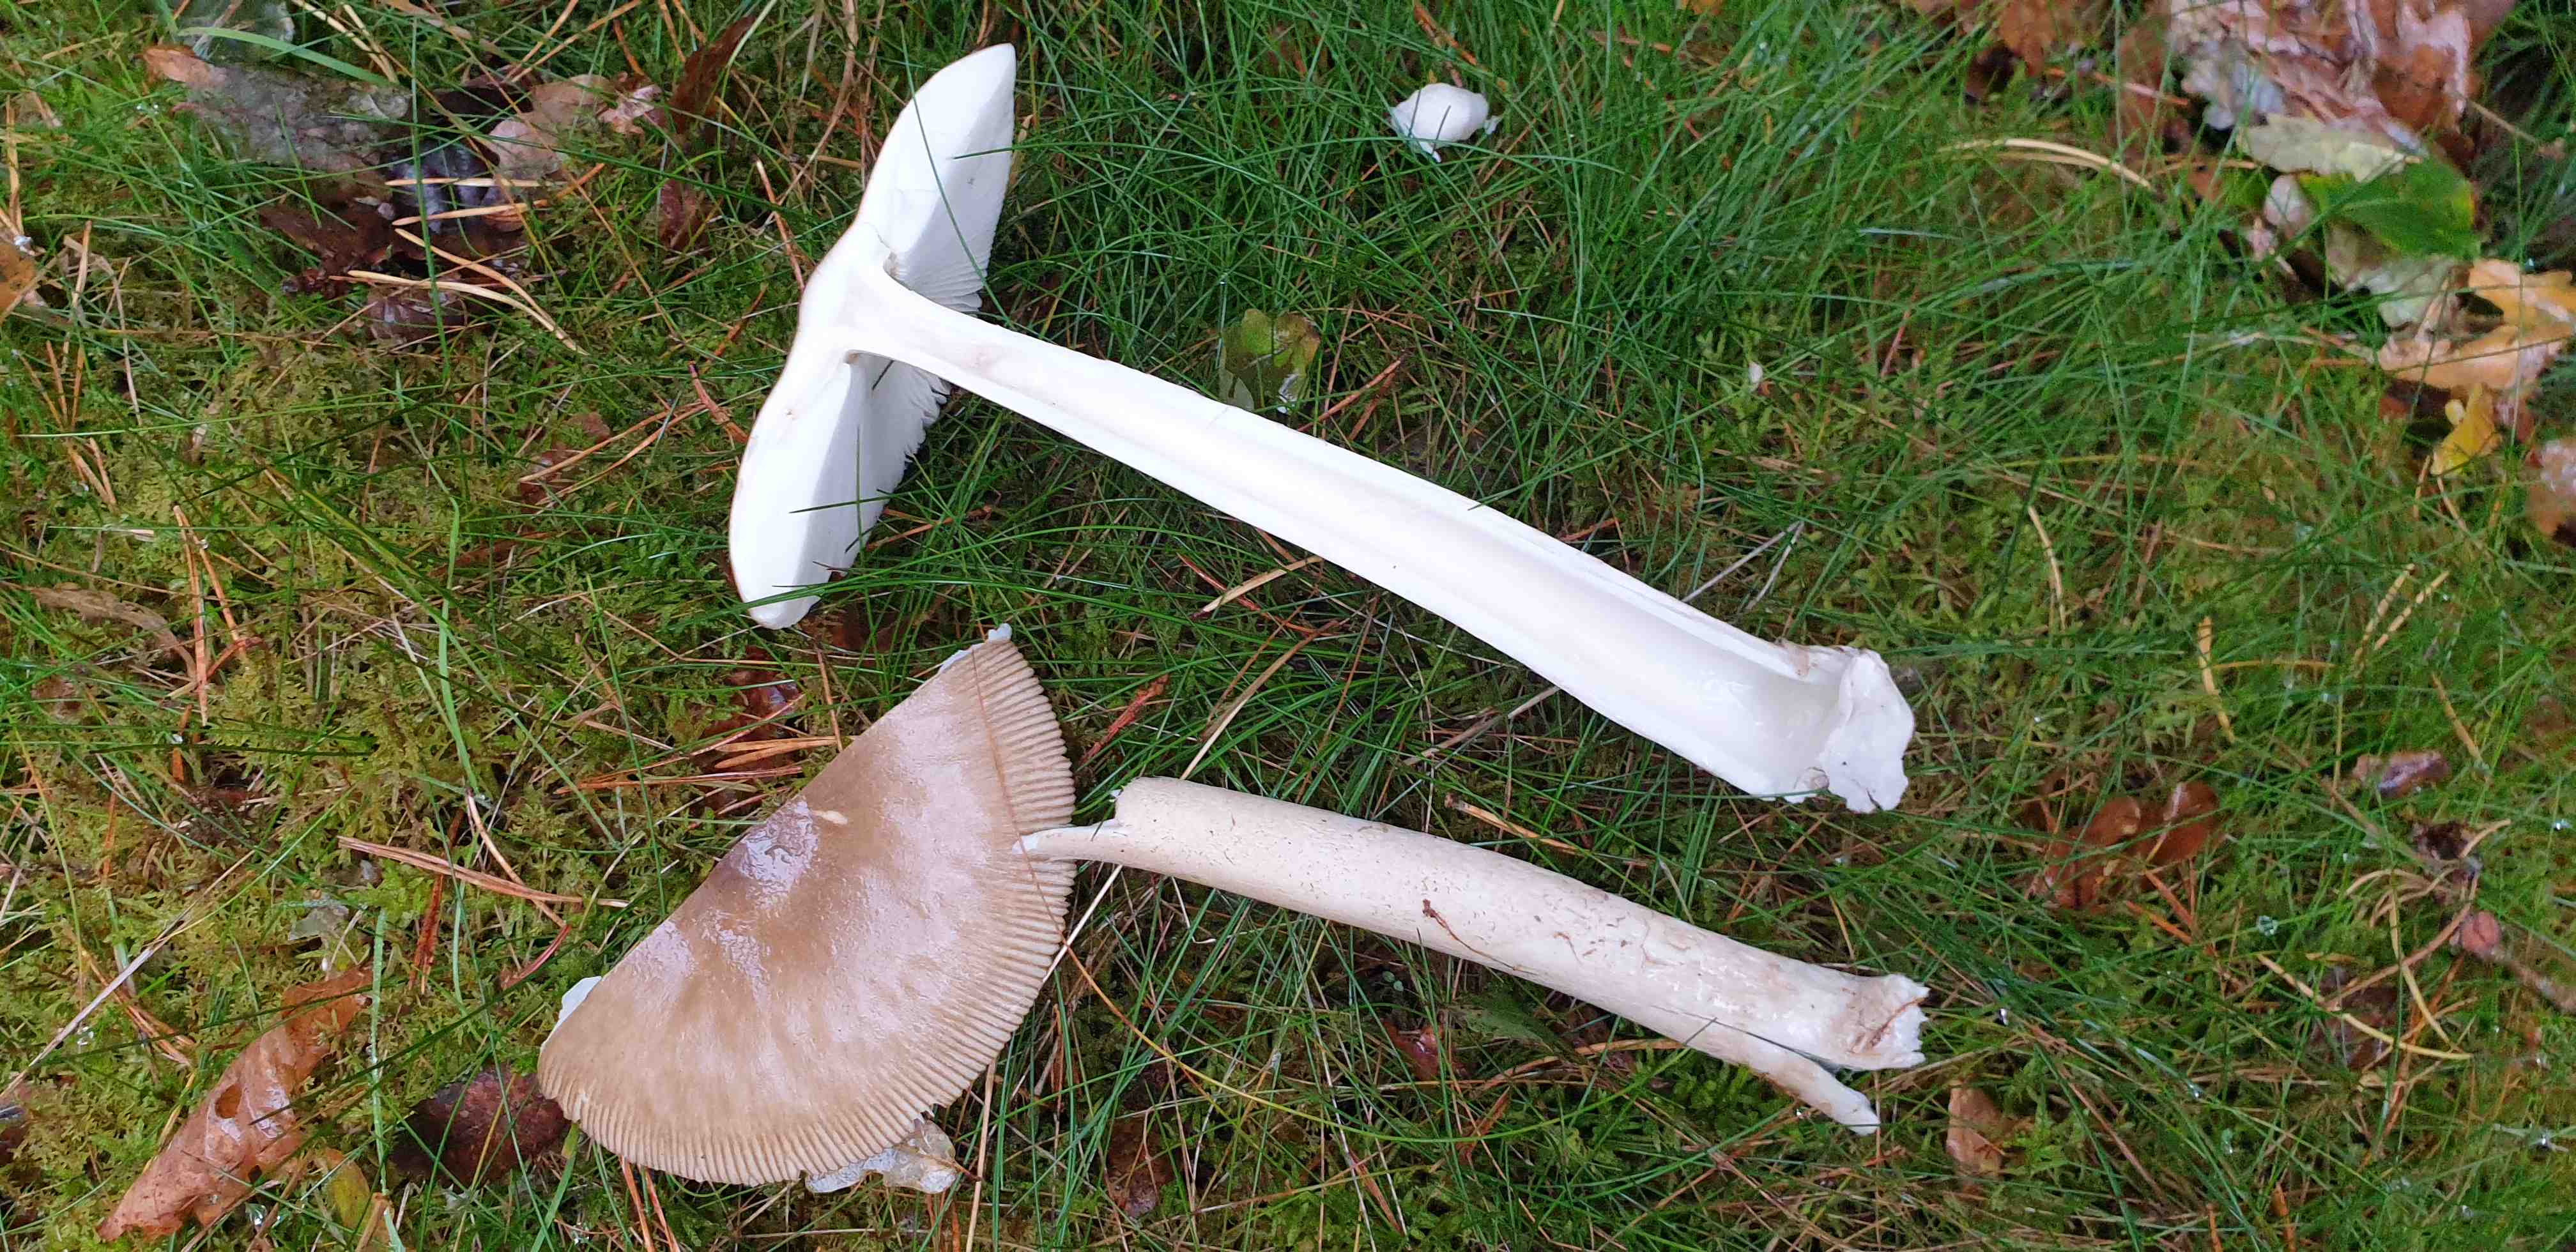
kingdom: Fungi
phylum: Basidiomycota
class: Agaricomycetes
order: Agaricales
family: Amanitaceae
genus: Amanita
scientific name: Amanita fulva
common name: brun kam-fluesvamp
